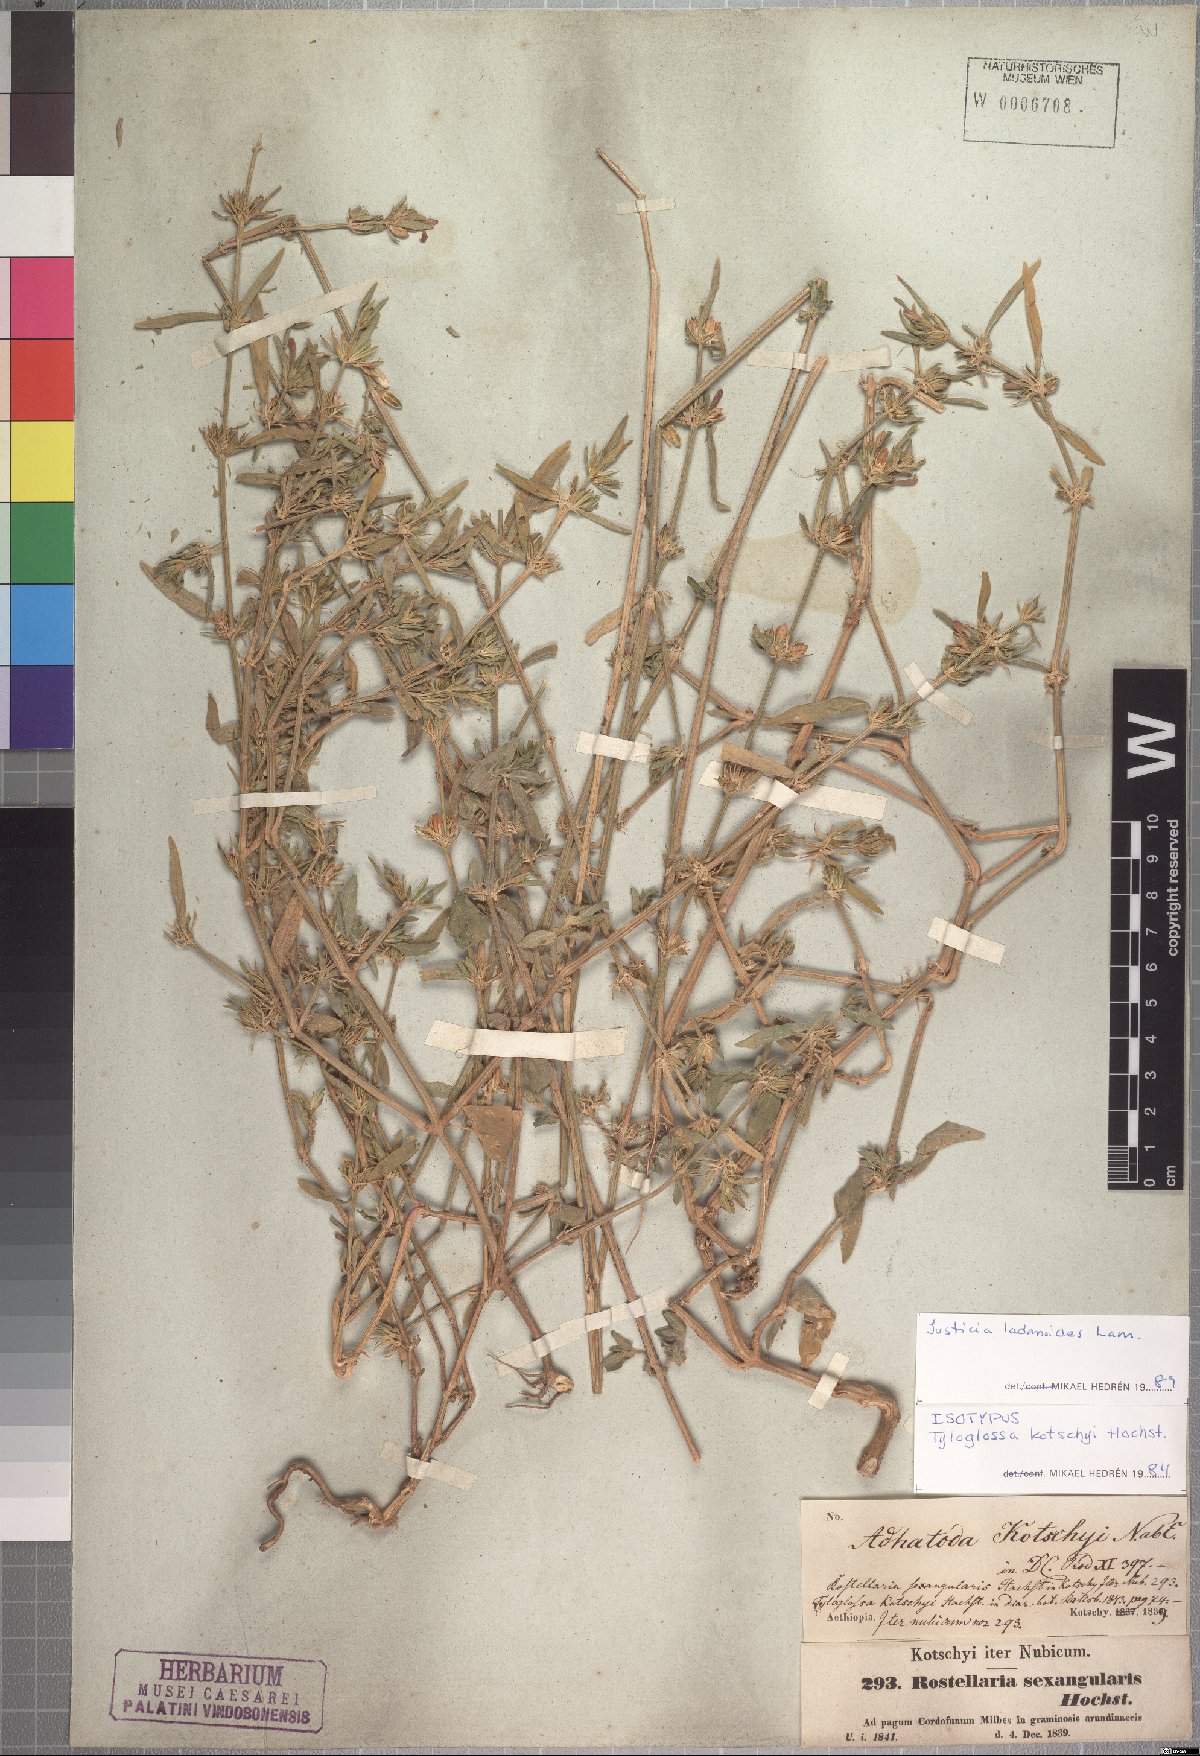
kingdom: Plantae
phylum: Tracheophyta
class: Magnoliopsida
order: Lamiales
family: Acanthaceae
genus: Justicia
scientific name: Justicia ladanoides
